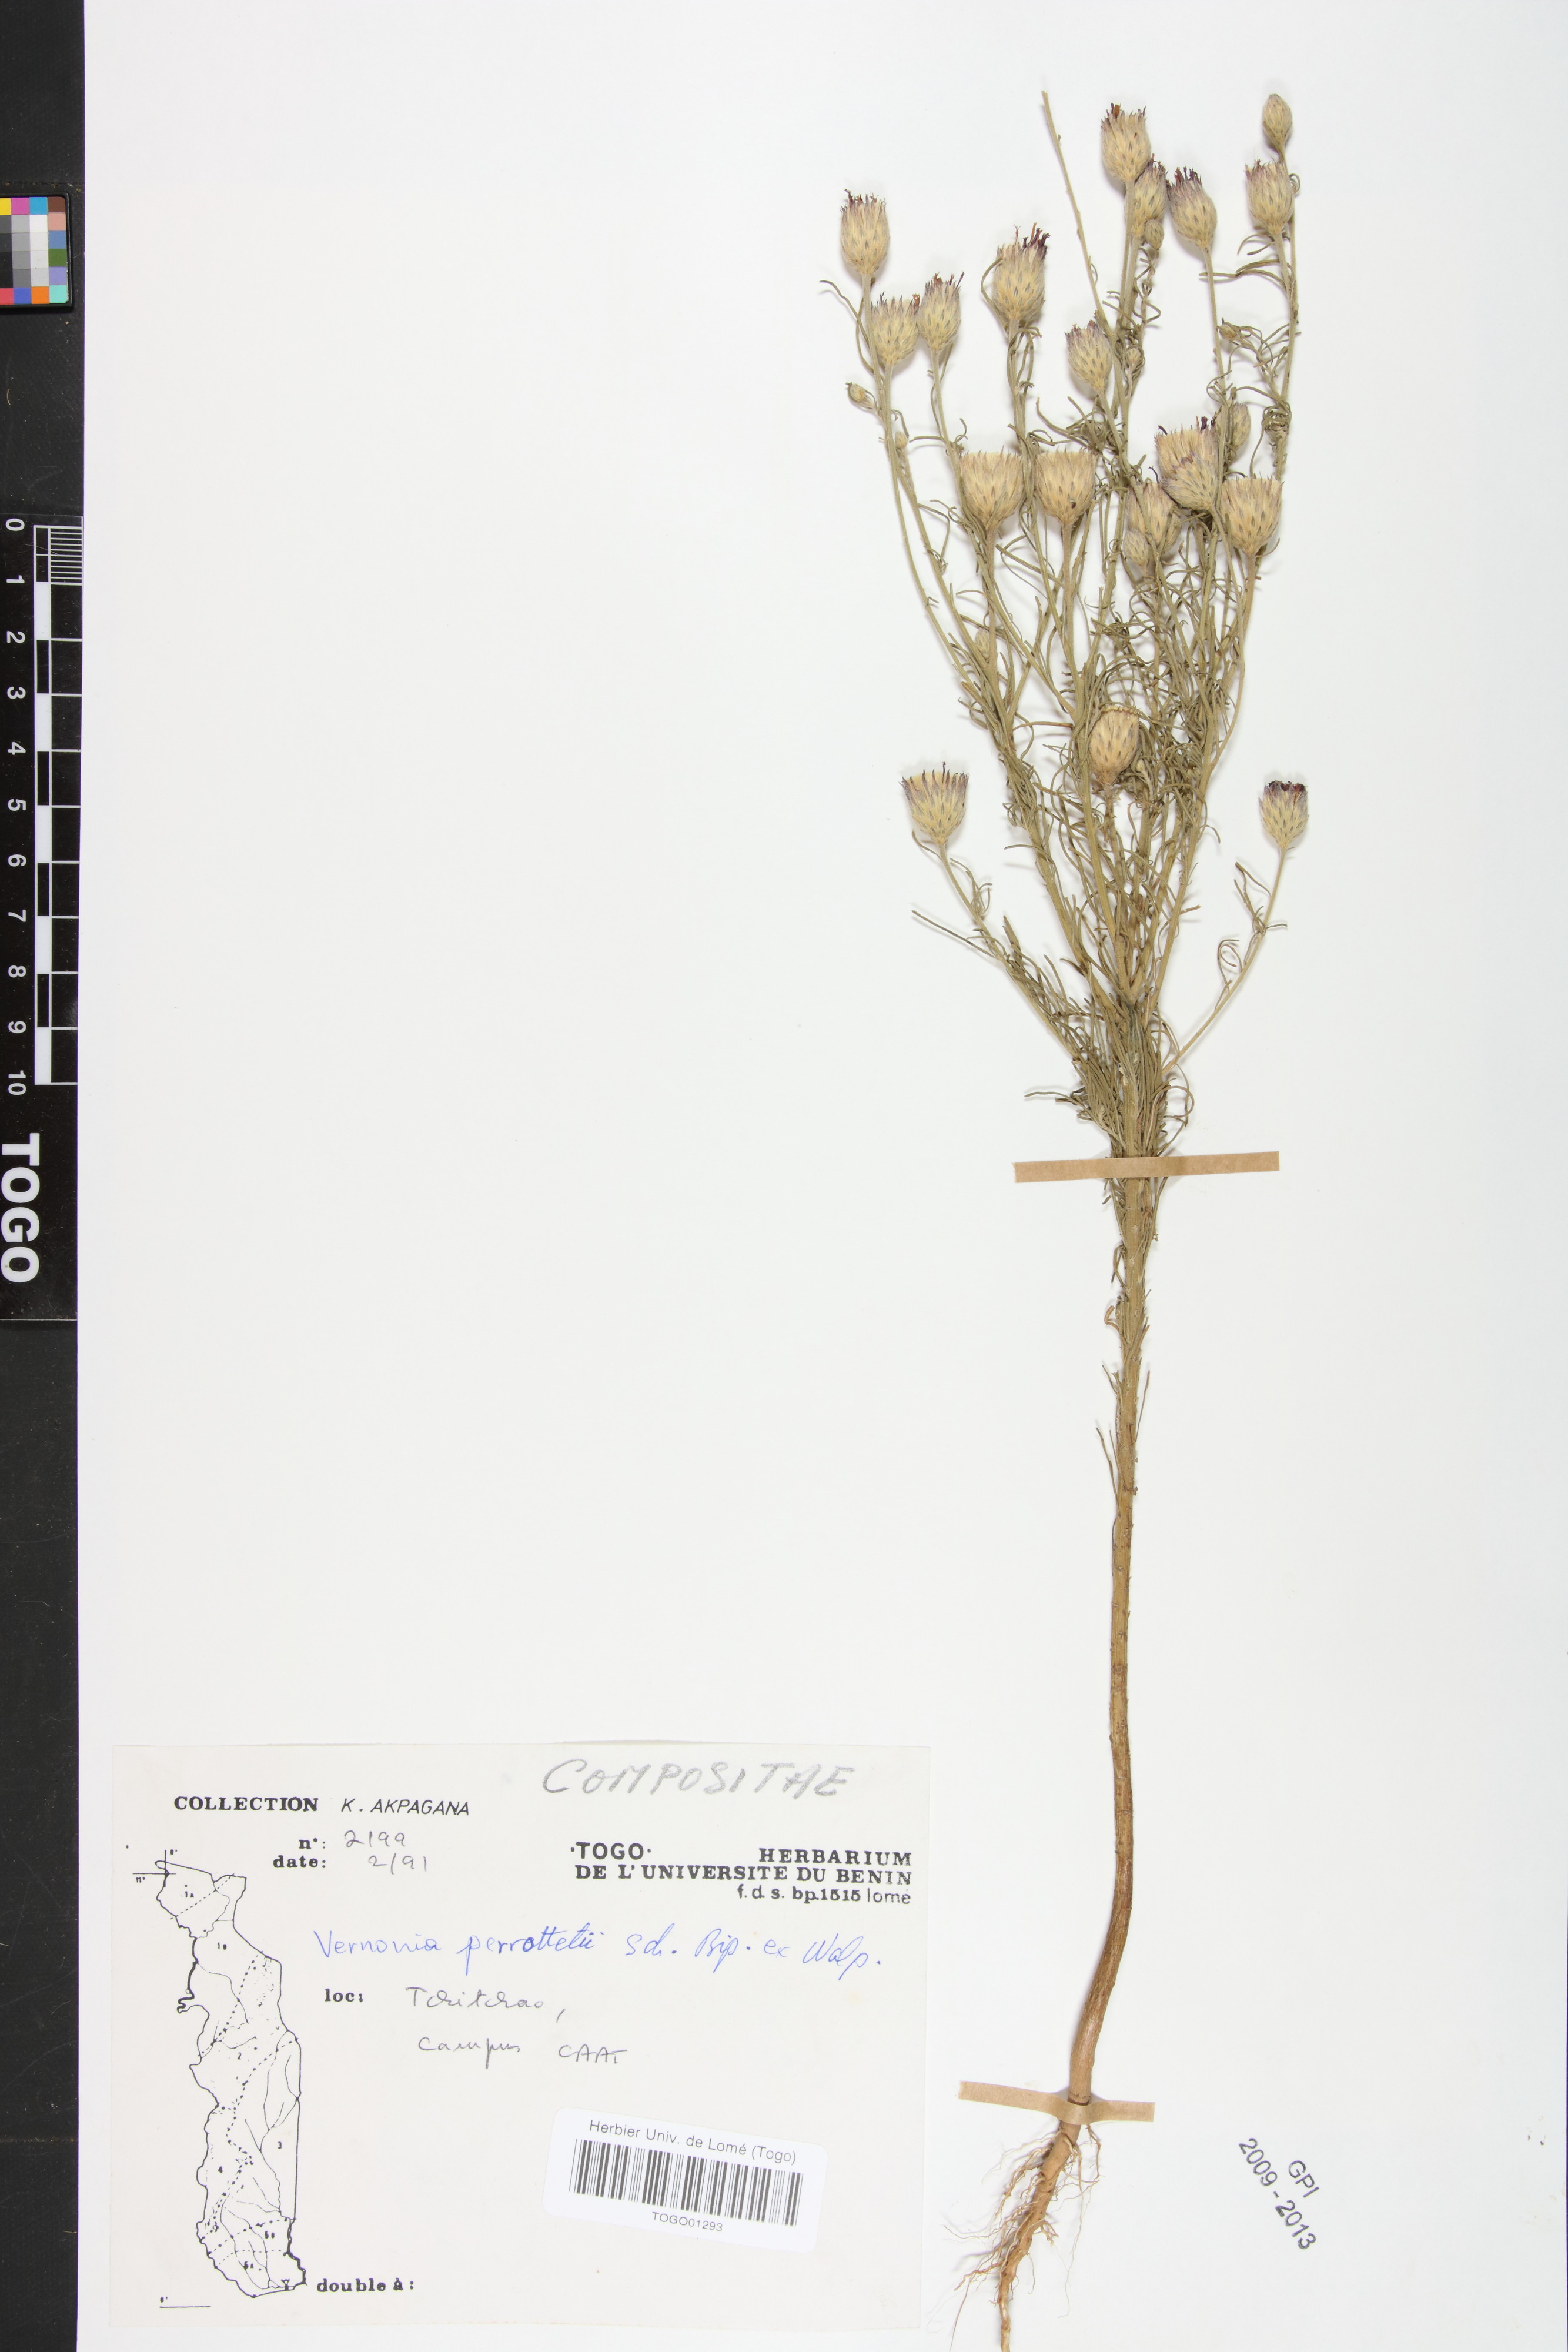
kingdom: Plantae
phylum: Tracheophyta
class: Magnoliopsida
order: Asterales
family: Asteraceae
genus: Crystallopollen
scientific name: Crystallopollen serratuloides
